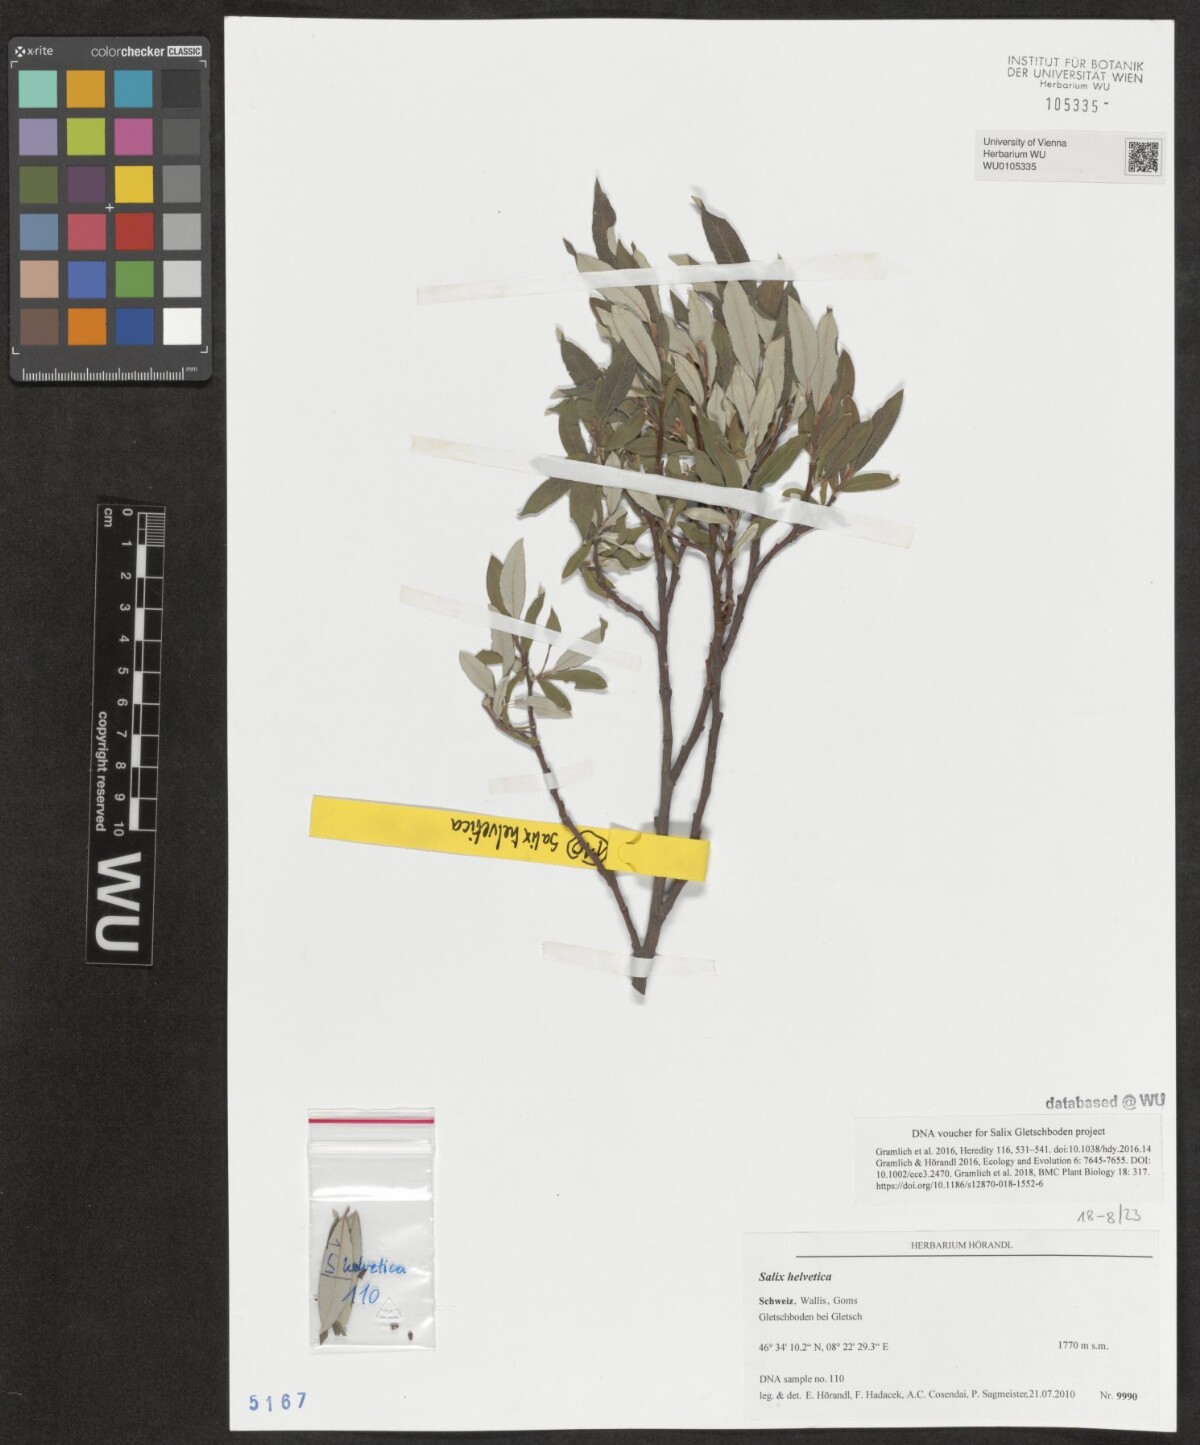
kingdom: Plantae
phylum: Tracheophyta
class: Magnoliopsida
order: Malpighiales
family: Salicaceae
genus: Salix
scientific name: Salix helvetica
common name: Swiss willow
